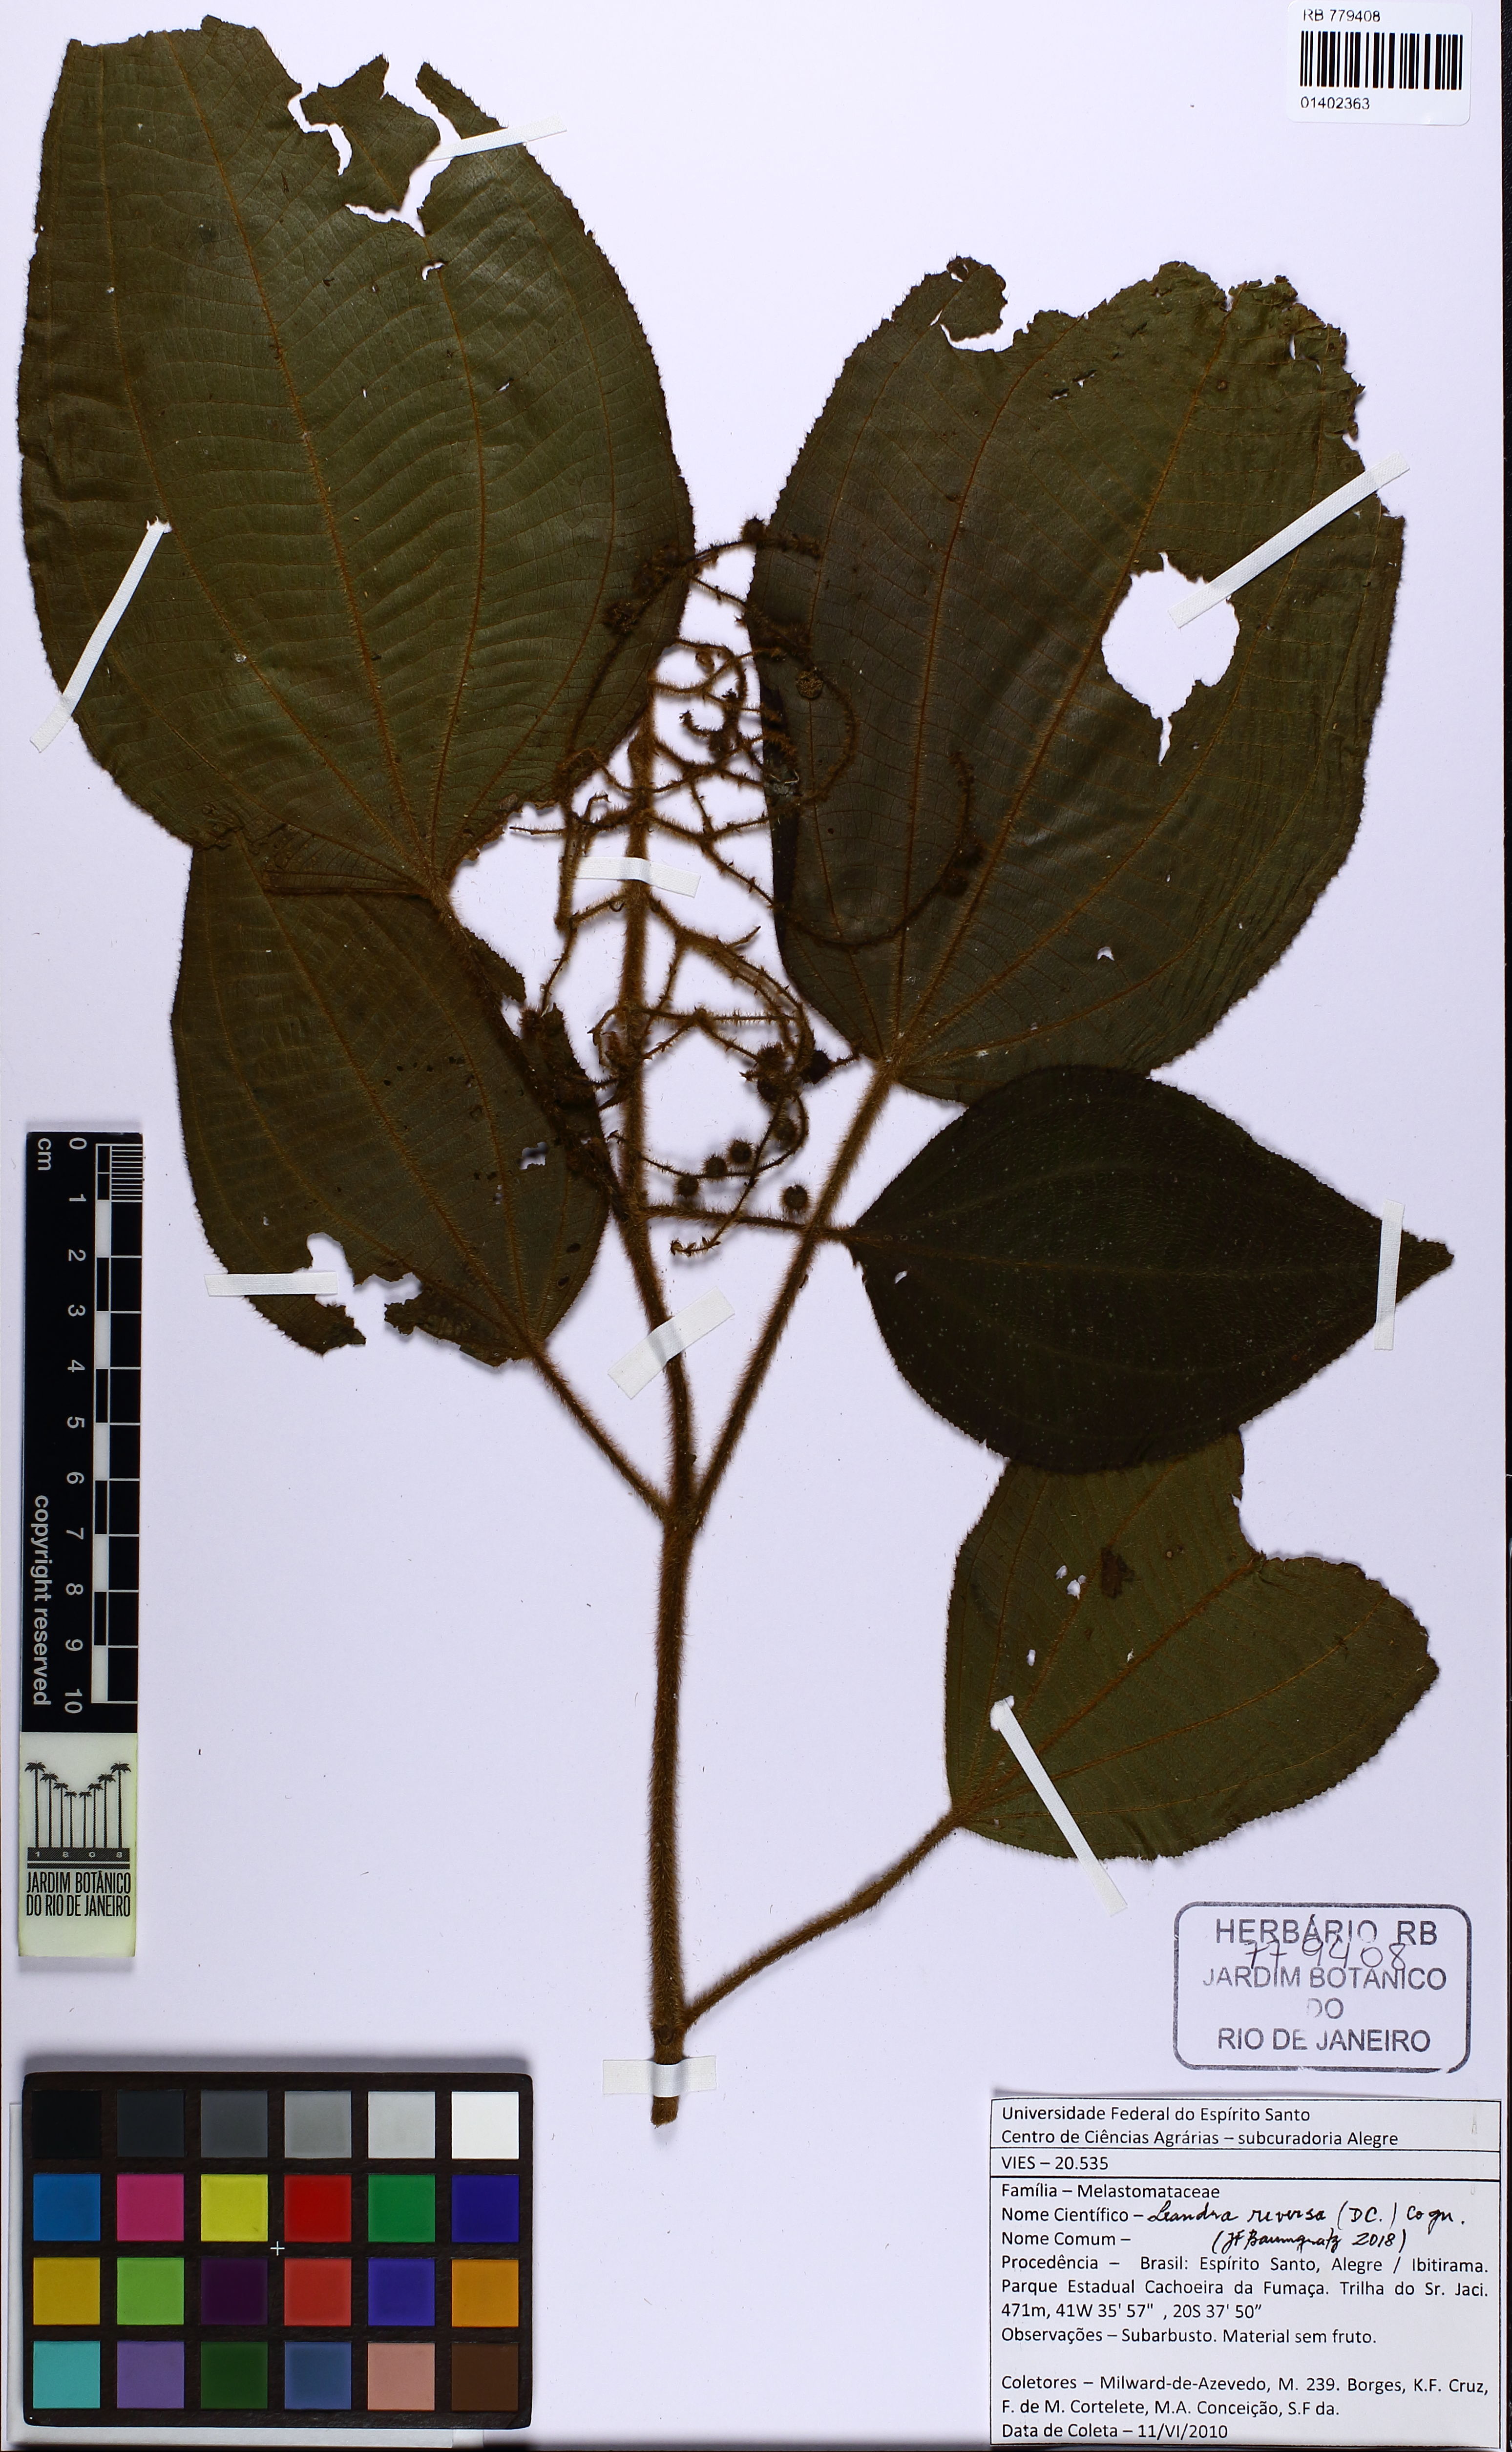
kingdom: Plantae
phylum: Tracheophyta
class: Magnoliopsida
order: Myrtales
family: Melastomataceae
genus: Miconia
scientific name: Miconia reversa
